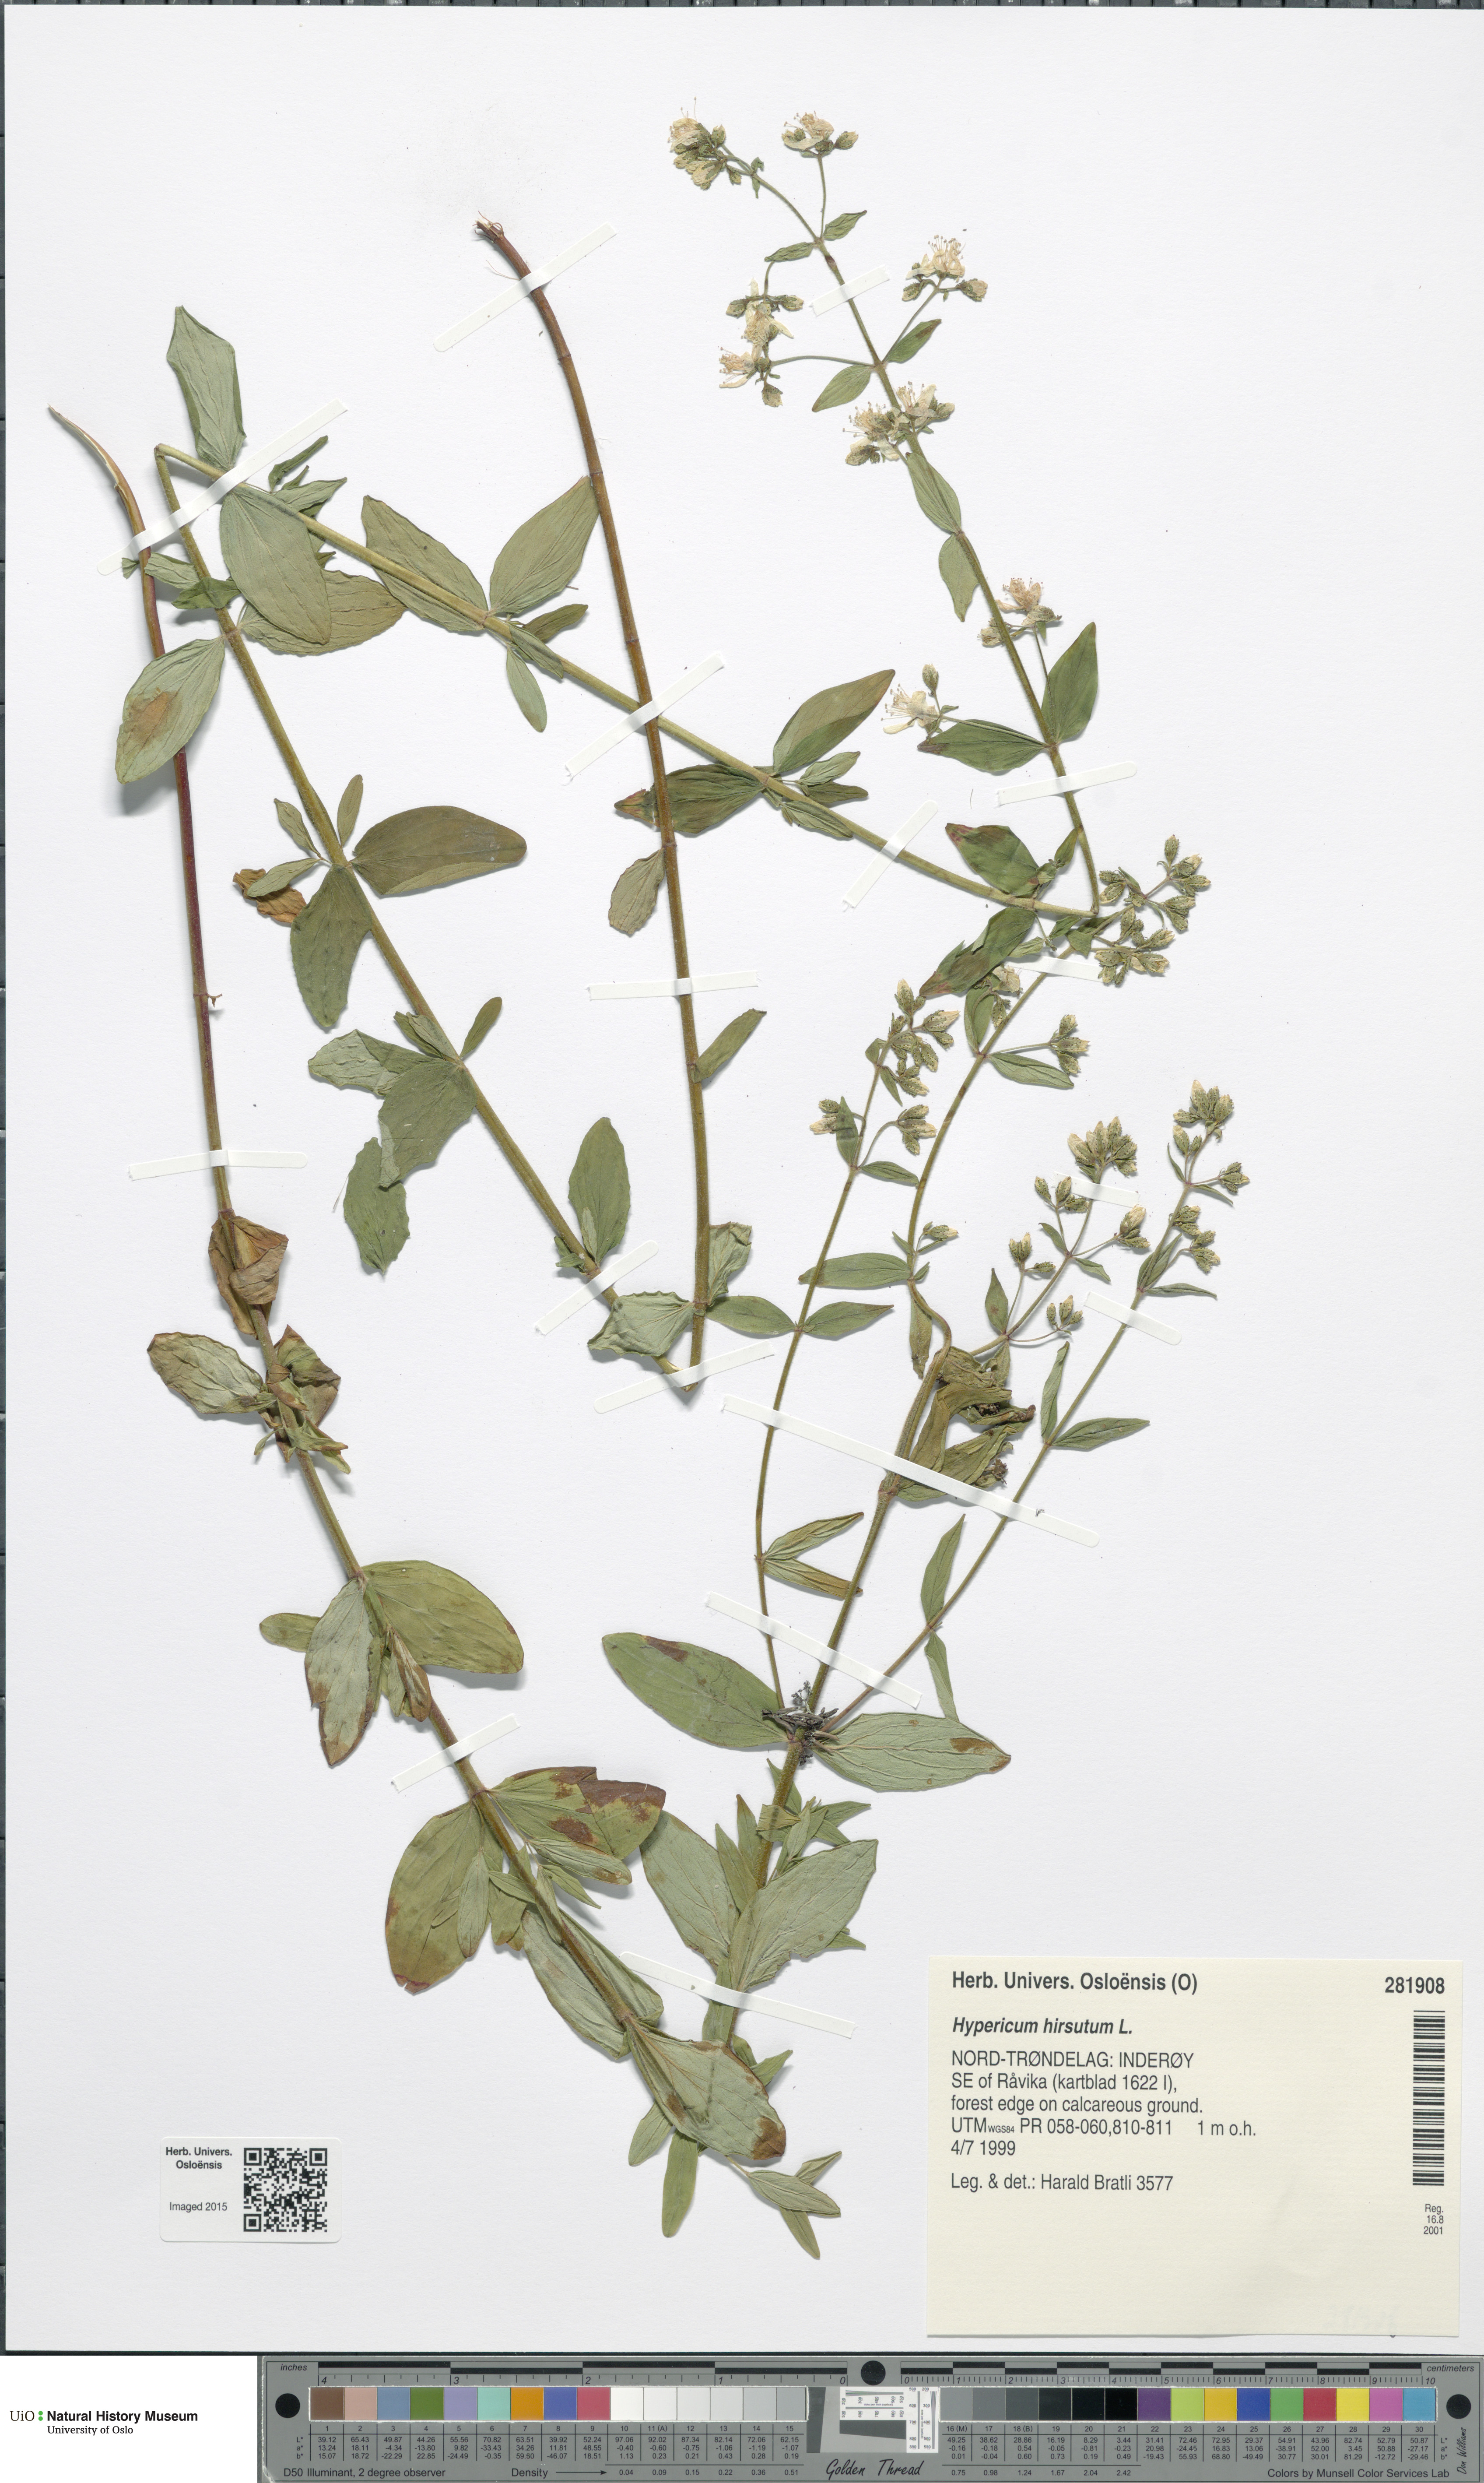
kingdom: Plantae
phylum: Tracheophyta
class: Magnoliopsida
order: Malpighiales
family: Hypericaceae
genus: Hypericum
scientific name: Hypericum hirsutum
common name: Hairy st. john's-wort
